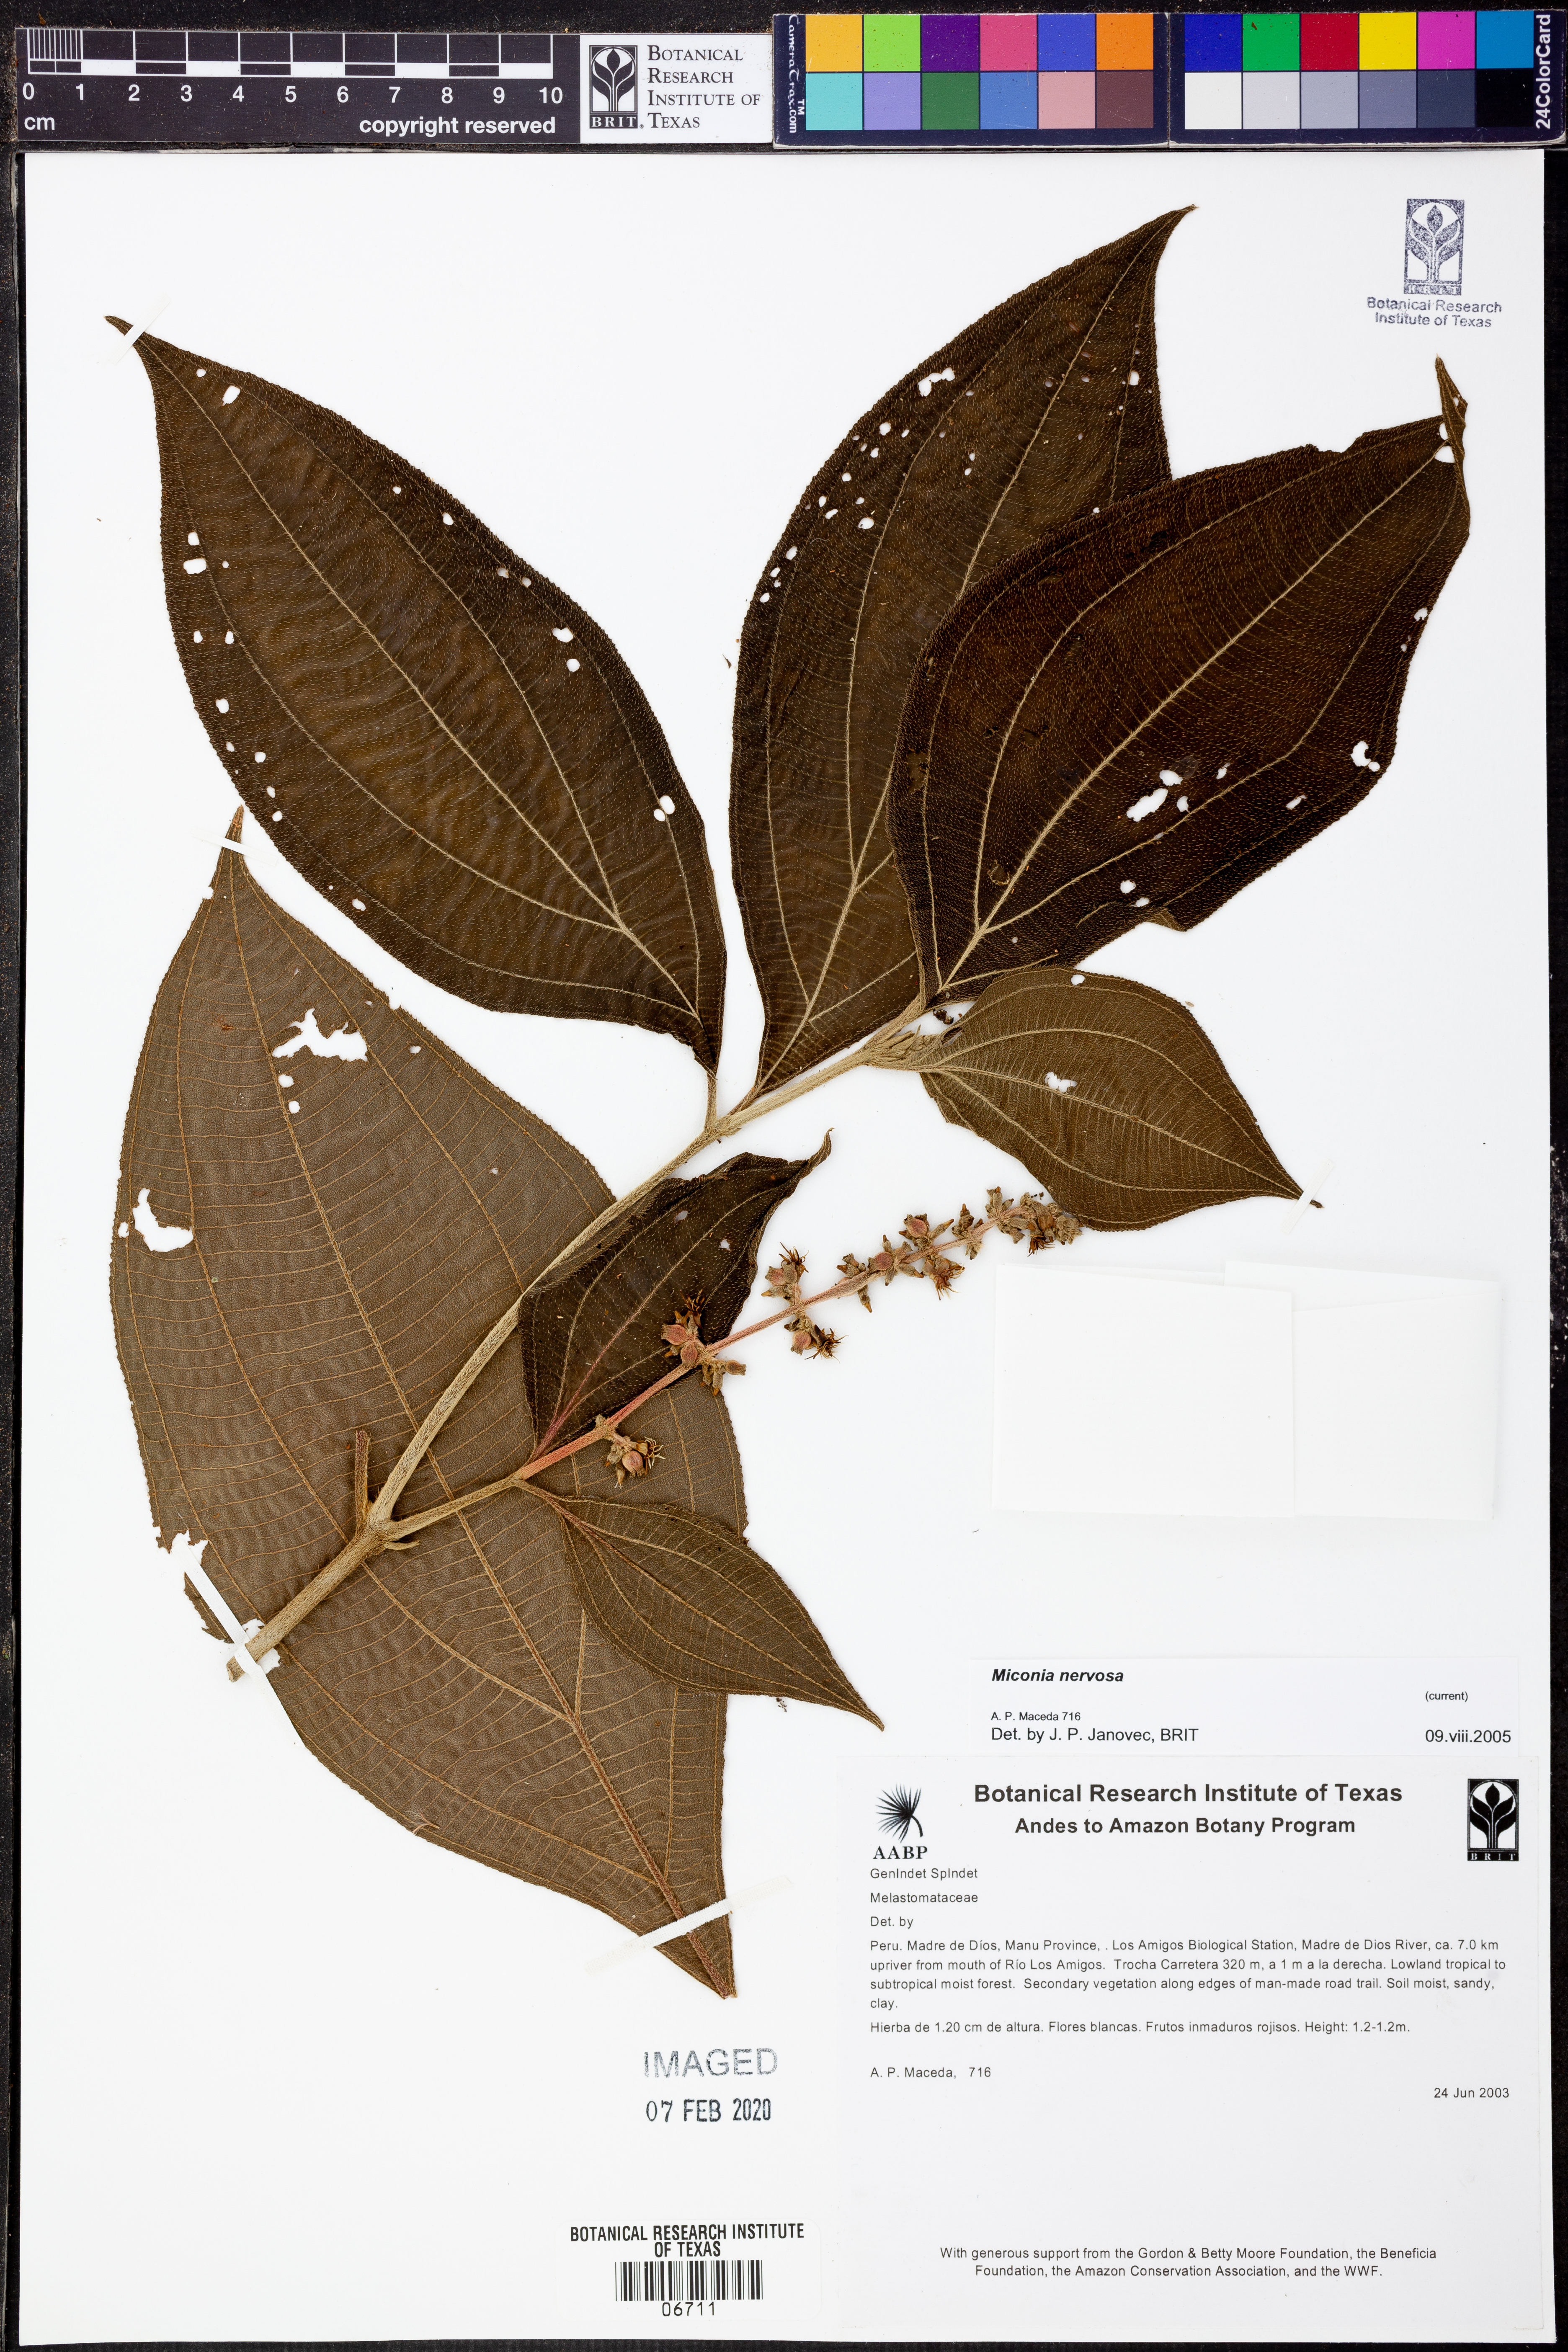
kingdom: Plantae
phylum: Tracheophyta
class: Magnoliopsida
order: Myrtales
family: Melastomataceae
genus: Miconia
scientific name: Miconia nervosa
